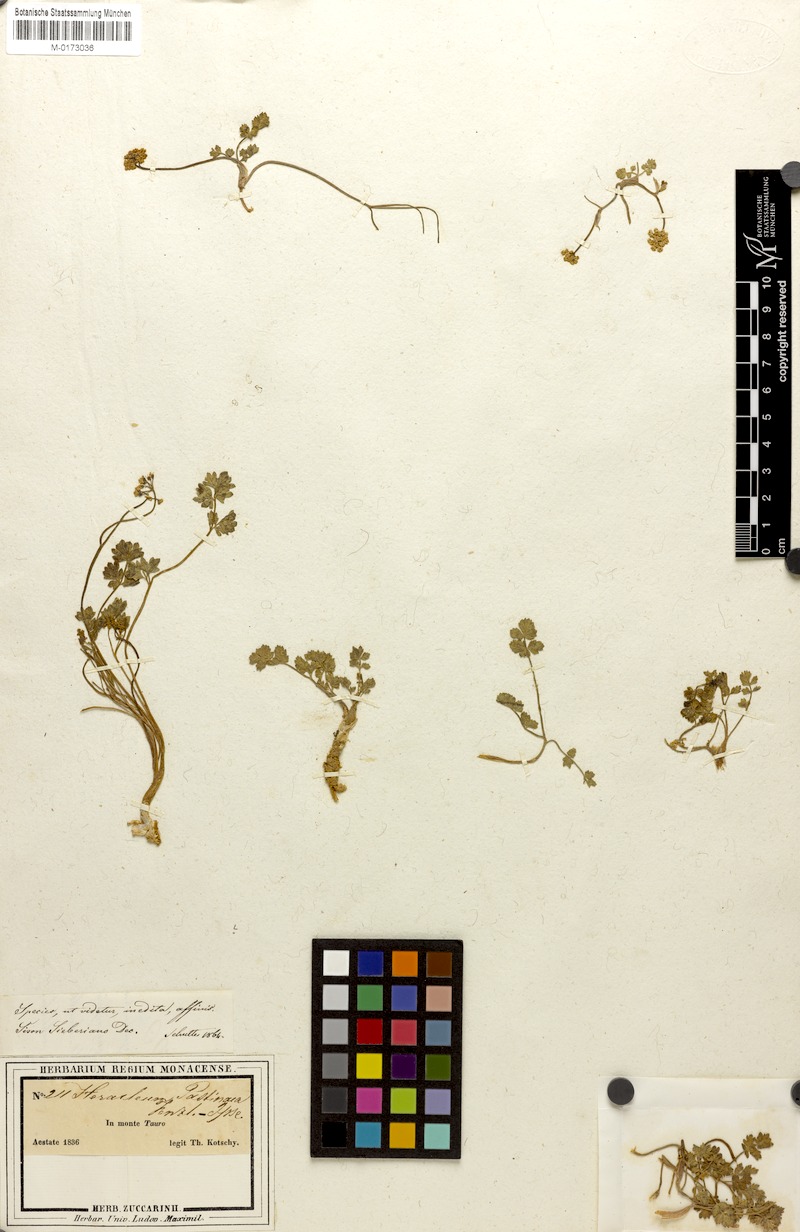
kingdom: Plantae
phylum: Tracheophyta
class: Magnoliopsida
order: Apiales
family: Apiaceae
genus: Heracleum
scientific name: Heracleum pastinaca
